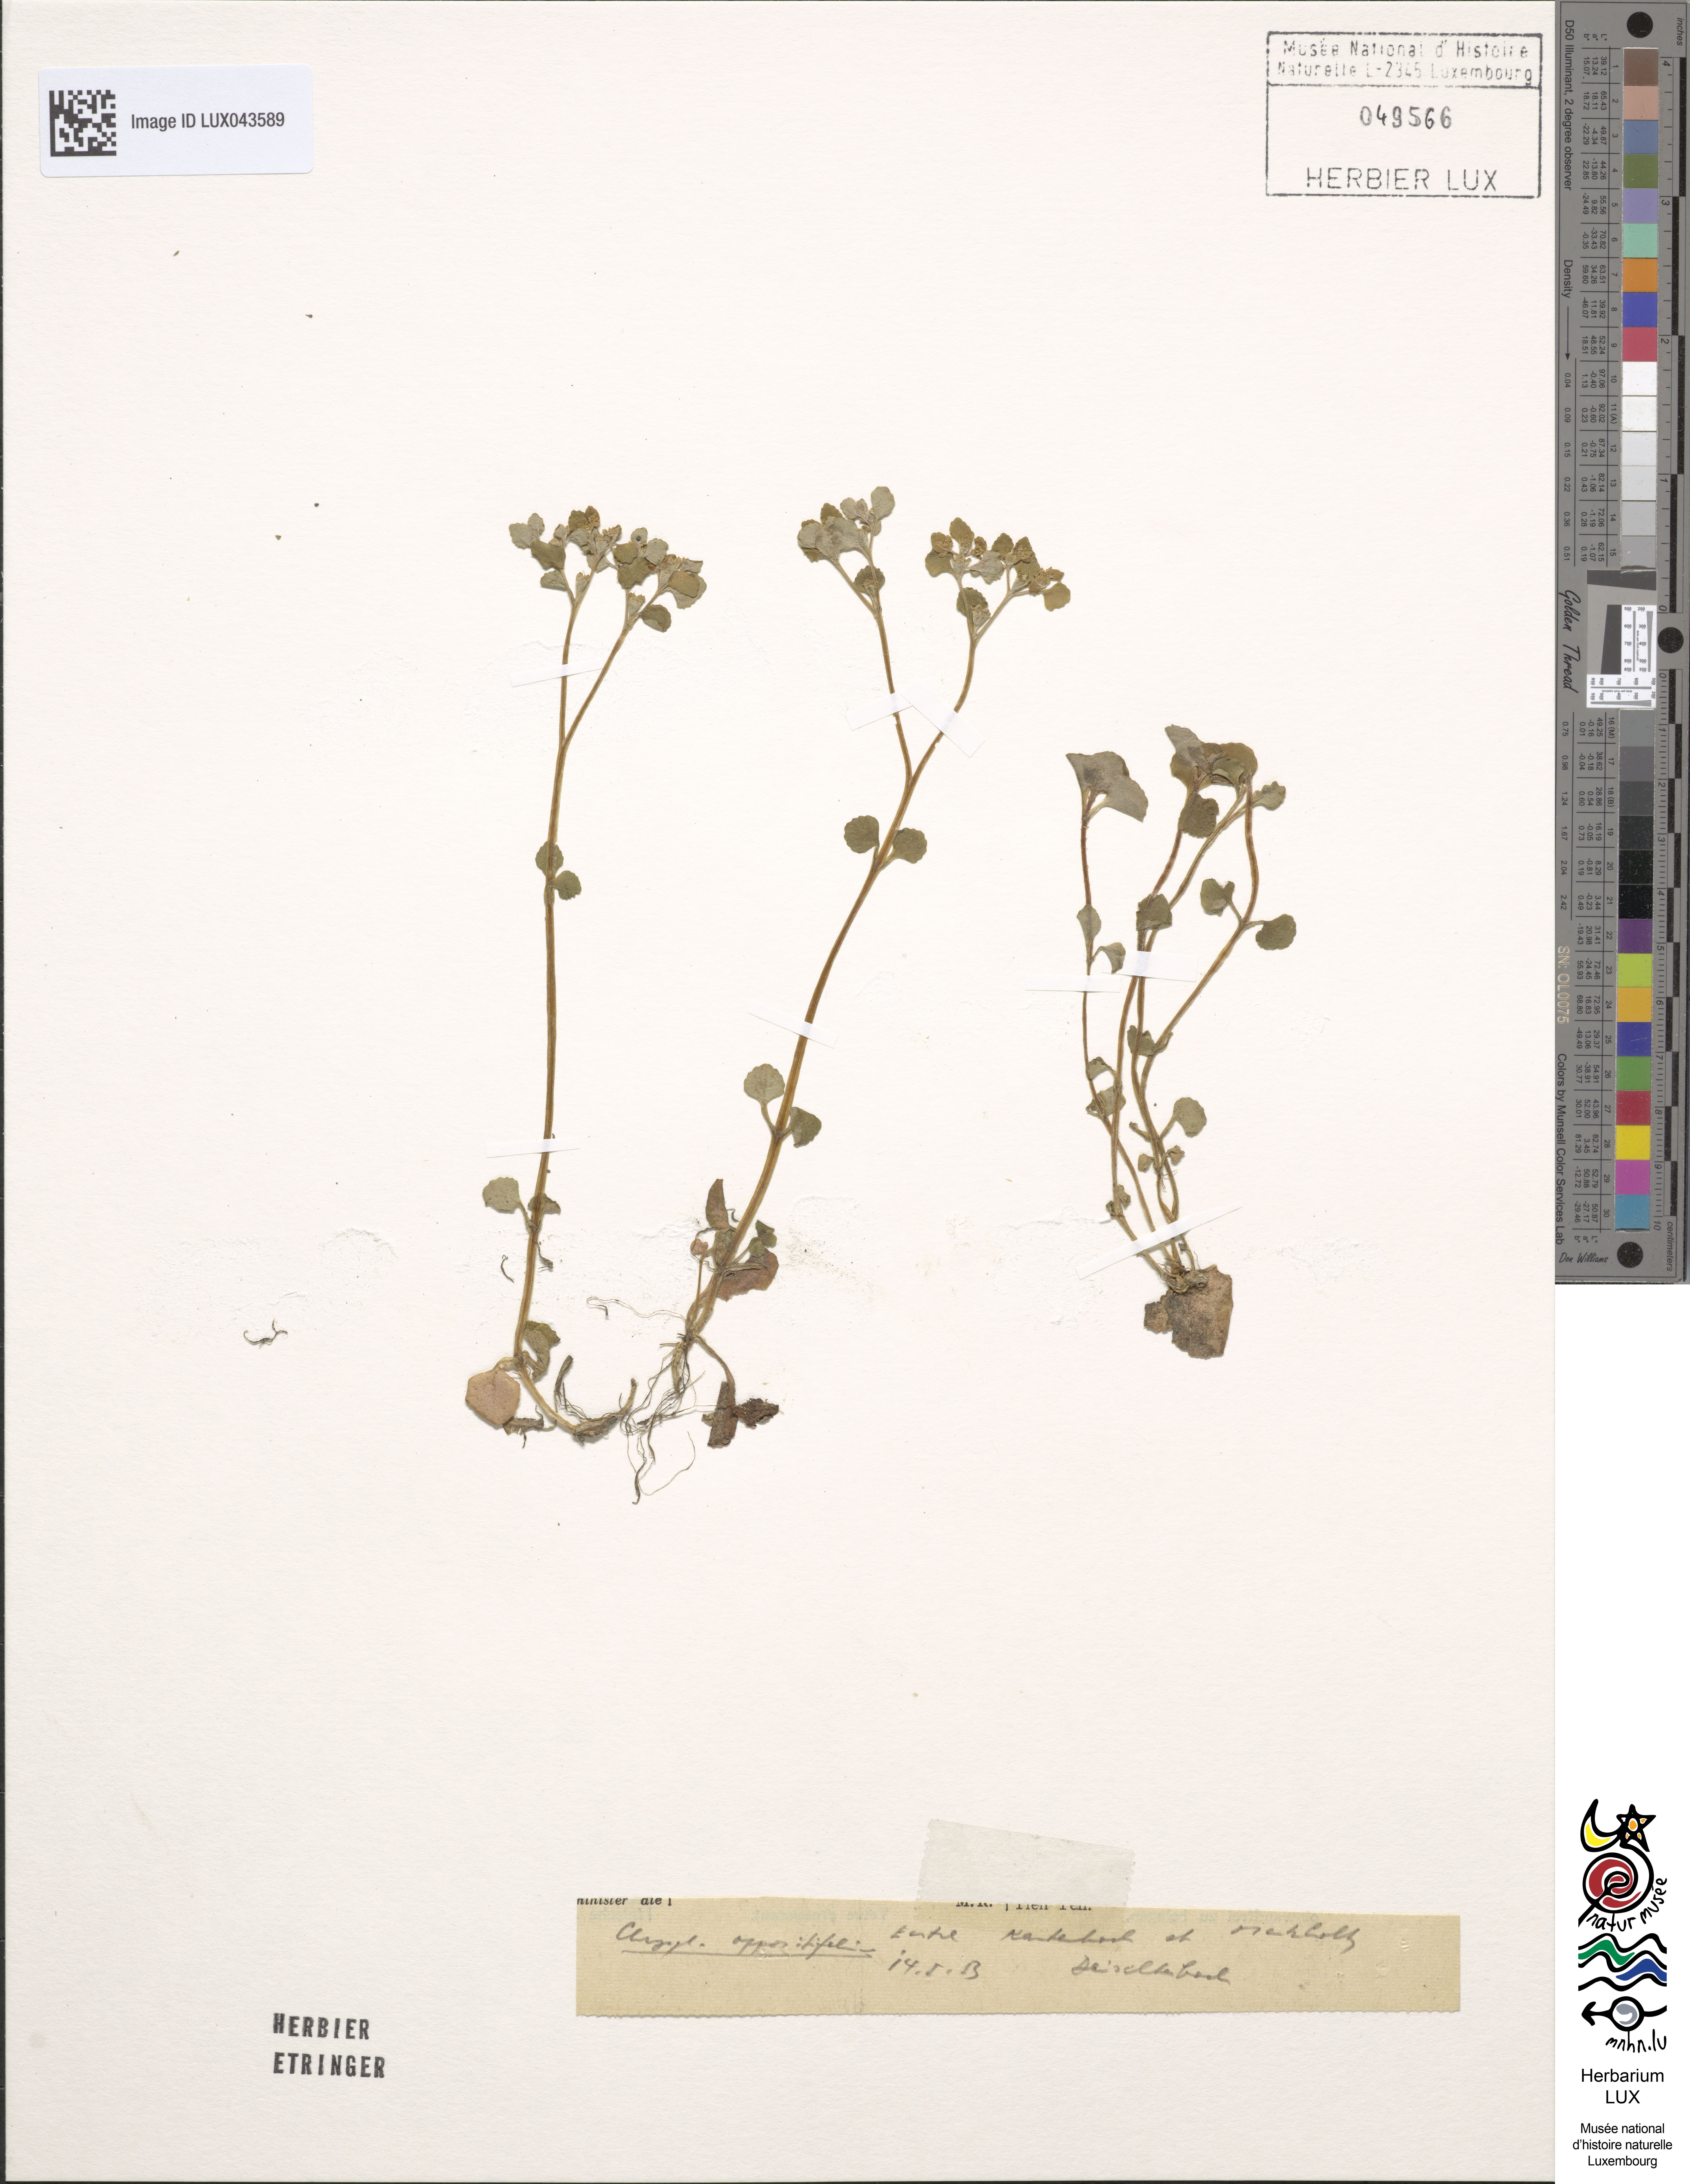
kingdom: Plantae
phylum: Tracheophyta
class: Magnoliopsida
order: Saxifragales
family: Saxifragaceae
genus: Chrysosplenium
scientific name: Chrysosplenium oppositifolium
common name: Opposite-leaved golden-saxifrage
